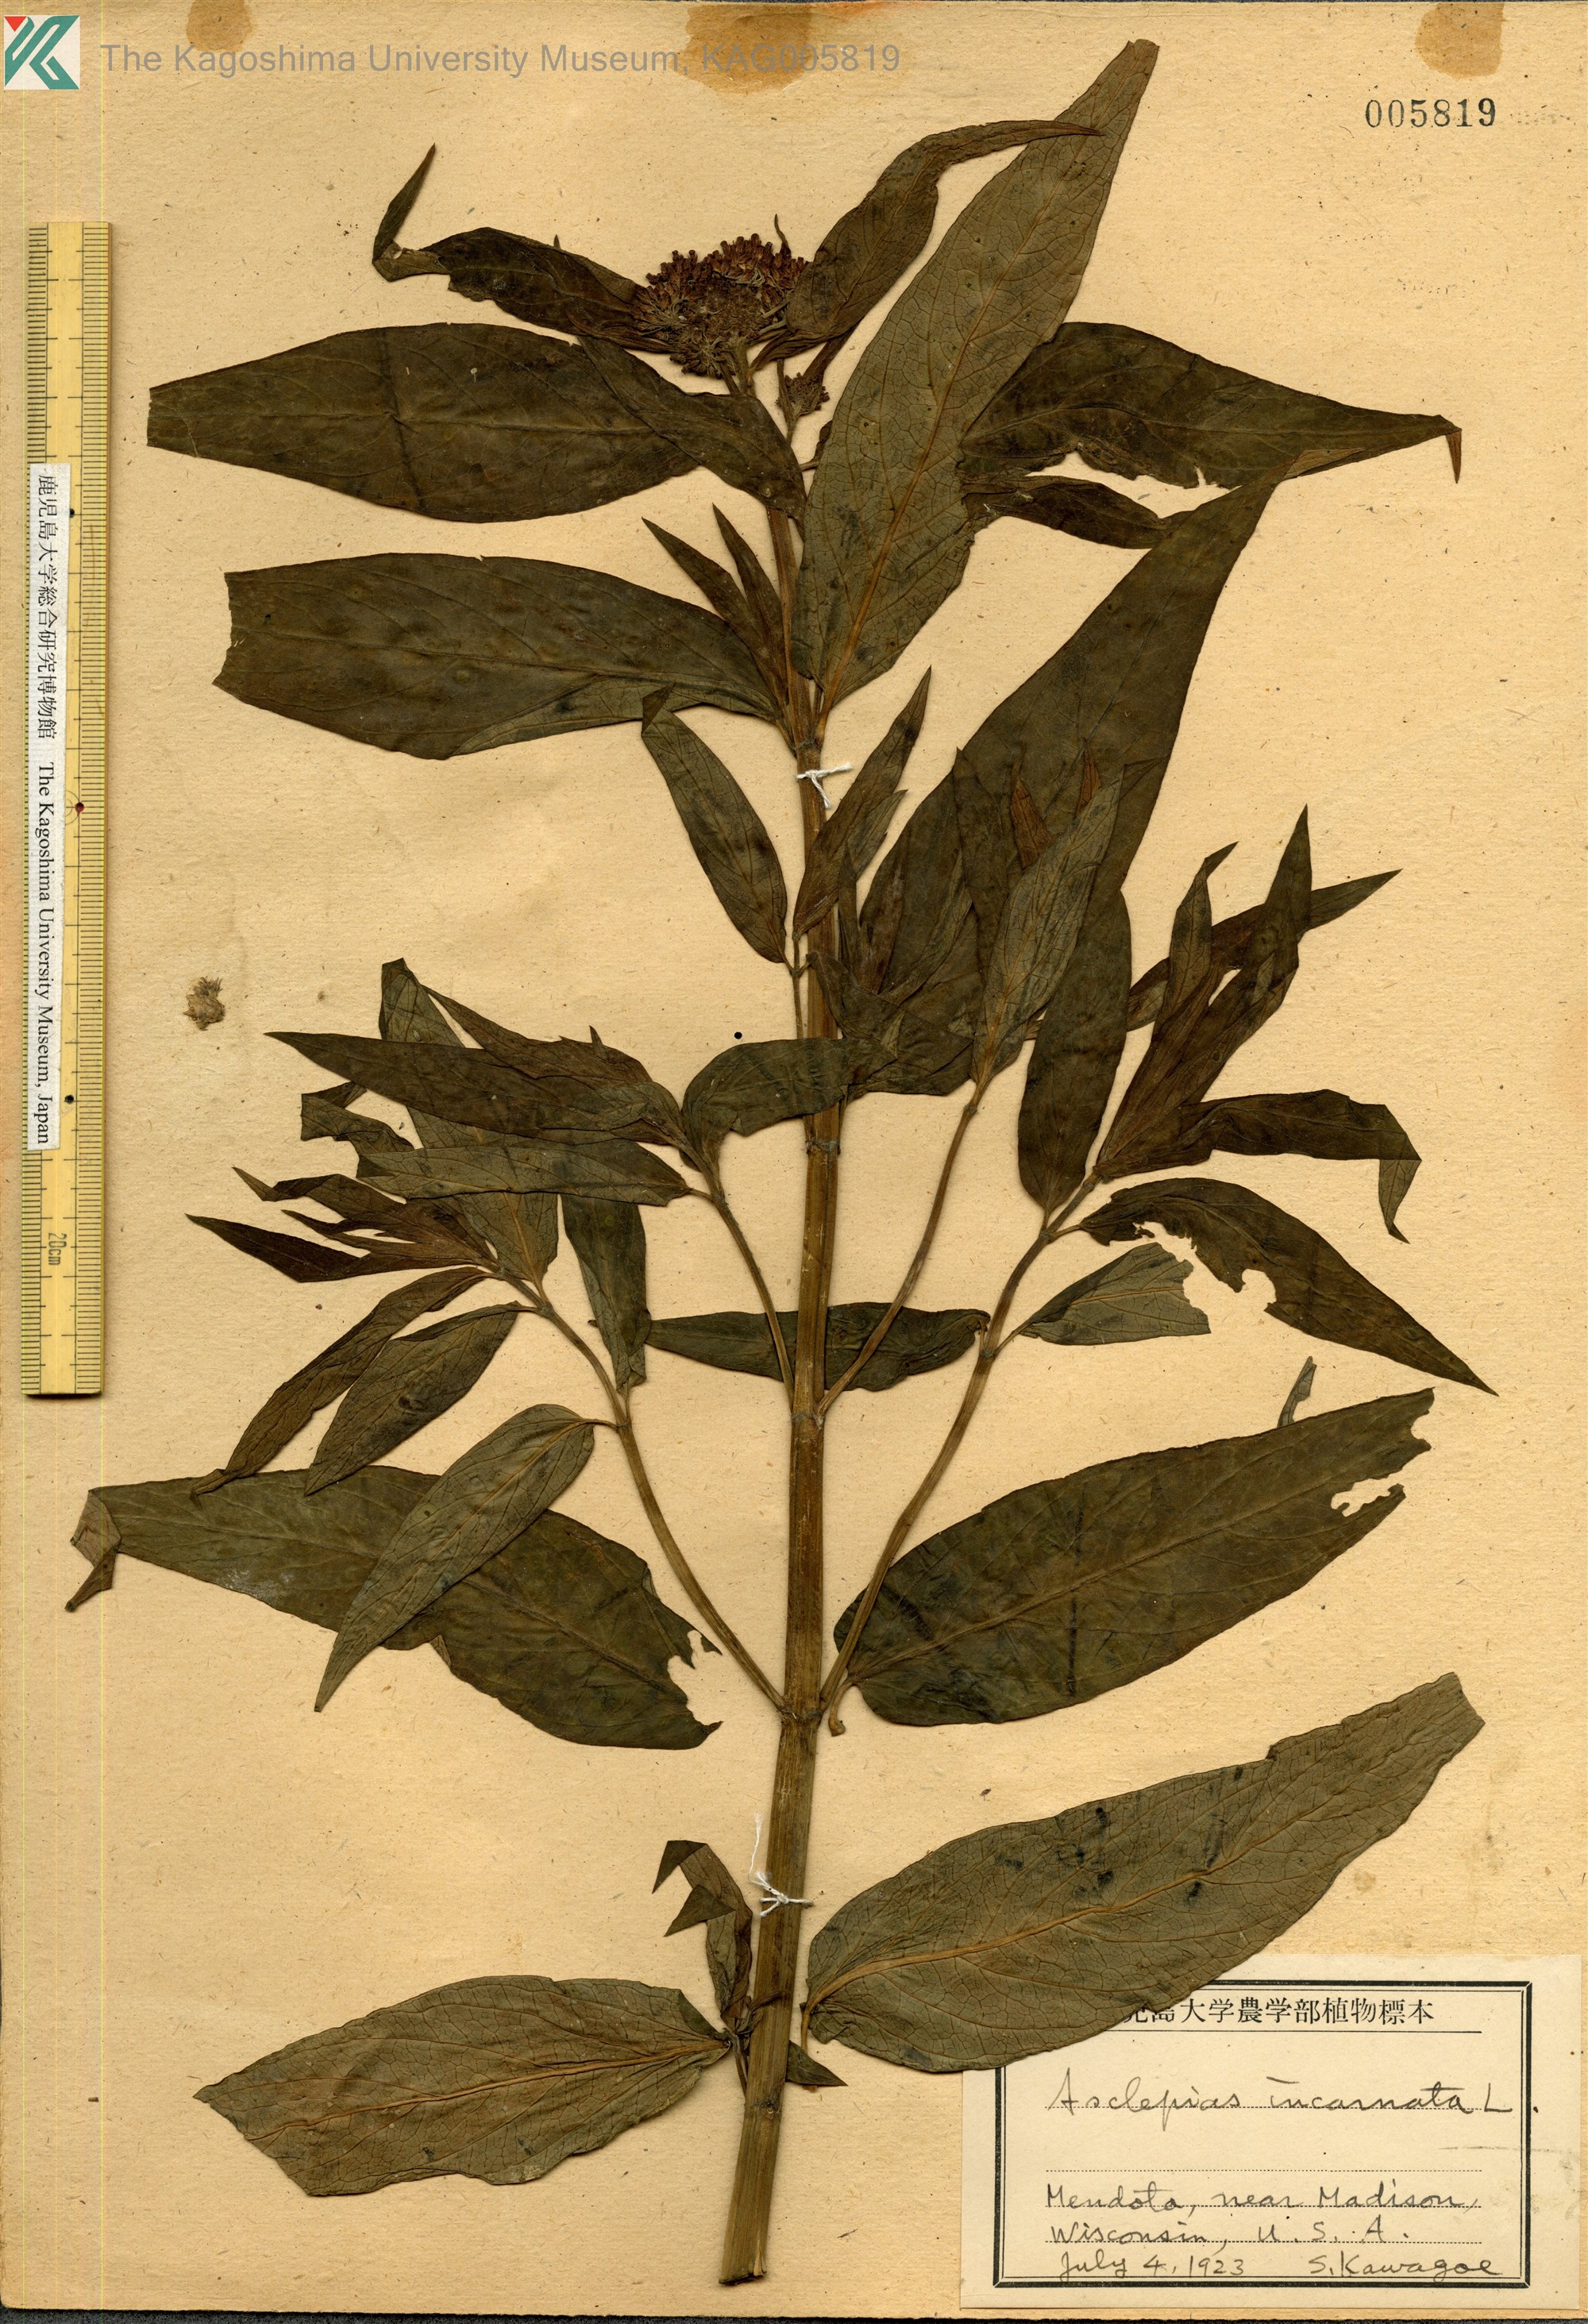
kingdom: Plantae
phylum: Tracheophyta
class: Magnoliopsida
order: Gentianales
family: Apocynaceae
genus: Asclepias
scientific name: Asclepias incarnata
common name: Swamp milkweed
